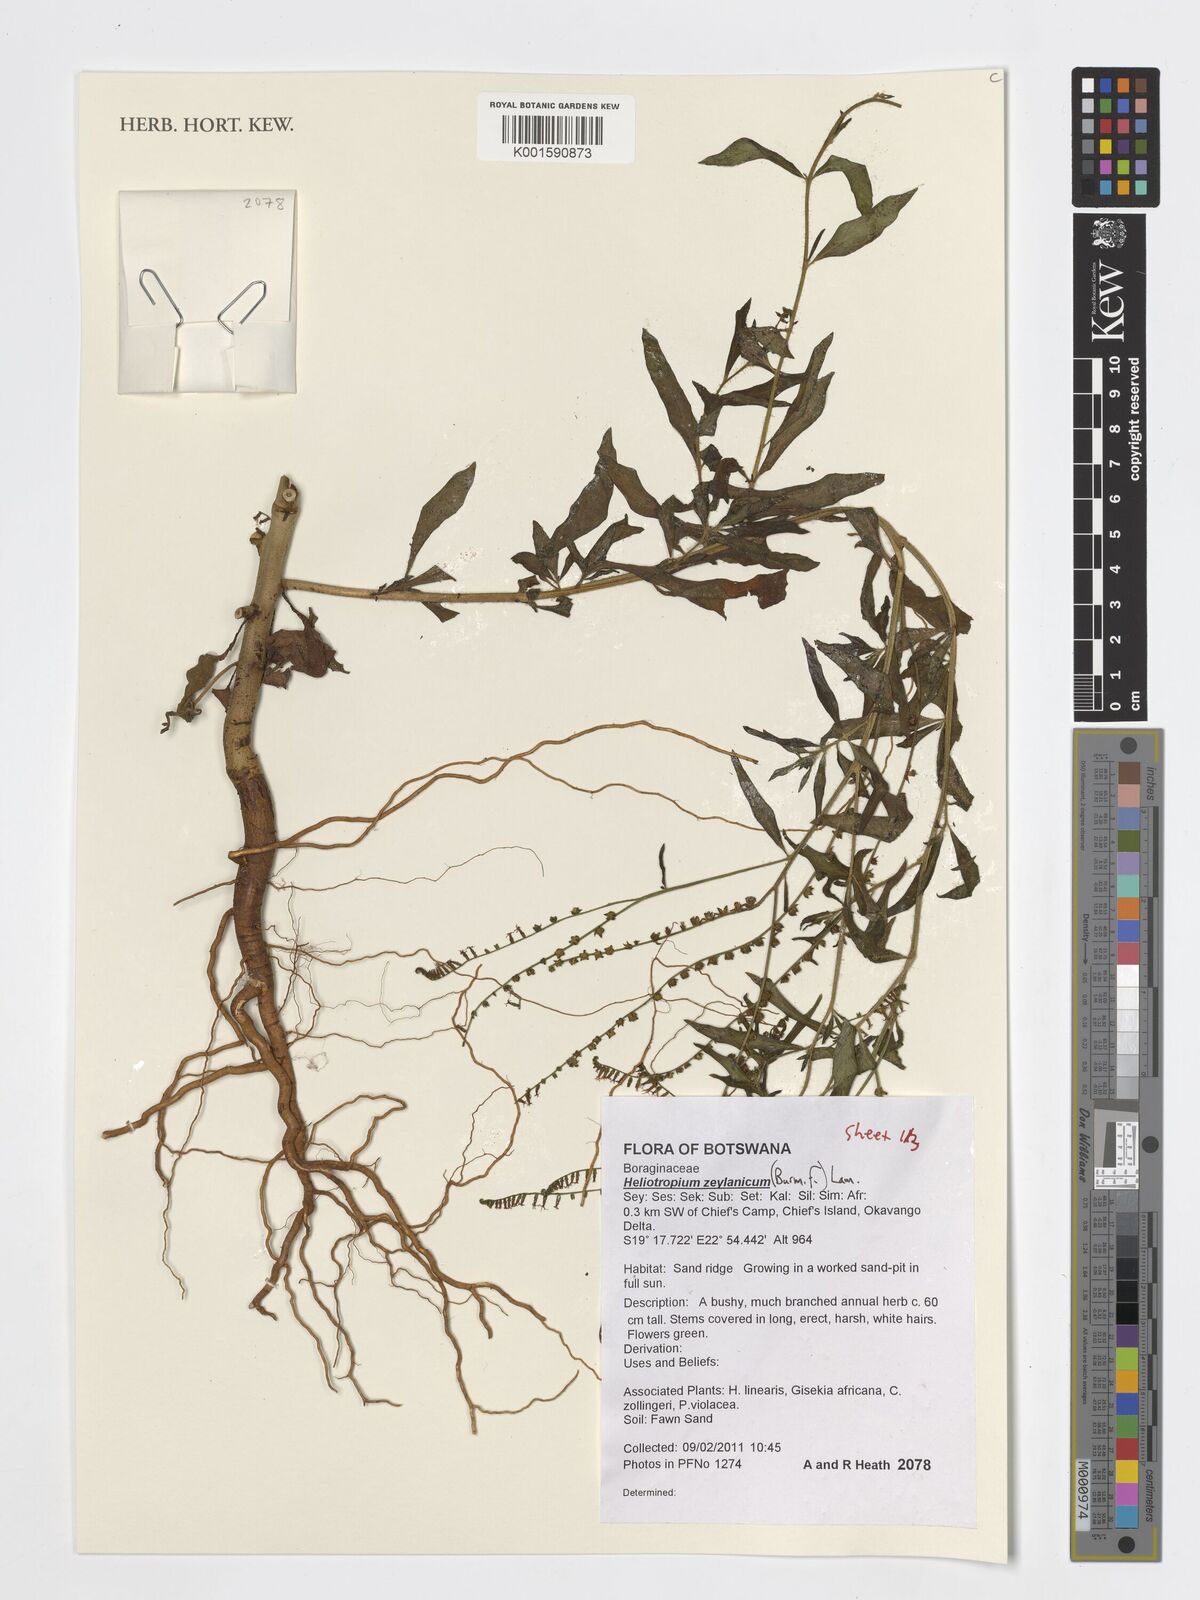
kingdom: Plantae
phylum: Tracheophyta
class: Magnoliopsida
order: Boraginales
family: Heliotropiaceae
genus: Heliotropium
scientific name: Heliotropium zeylanicum
